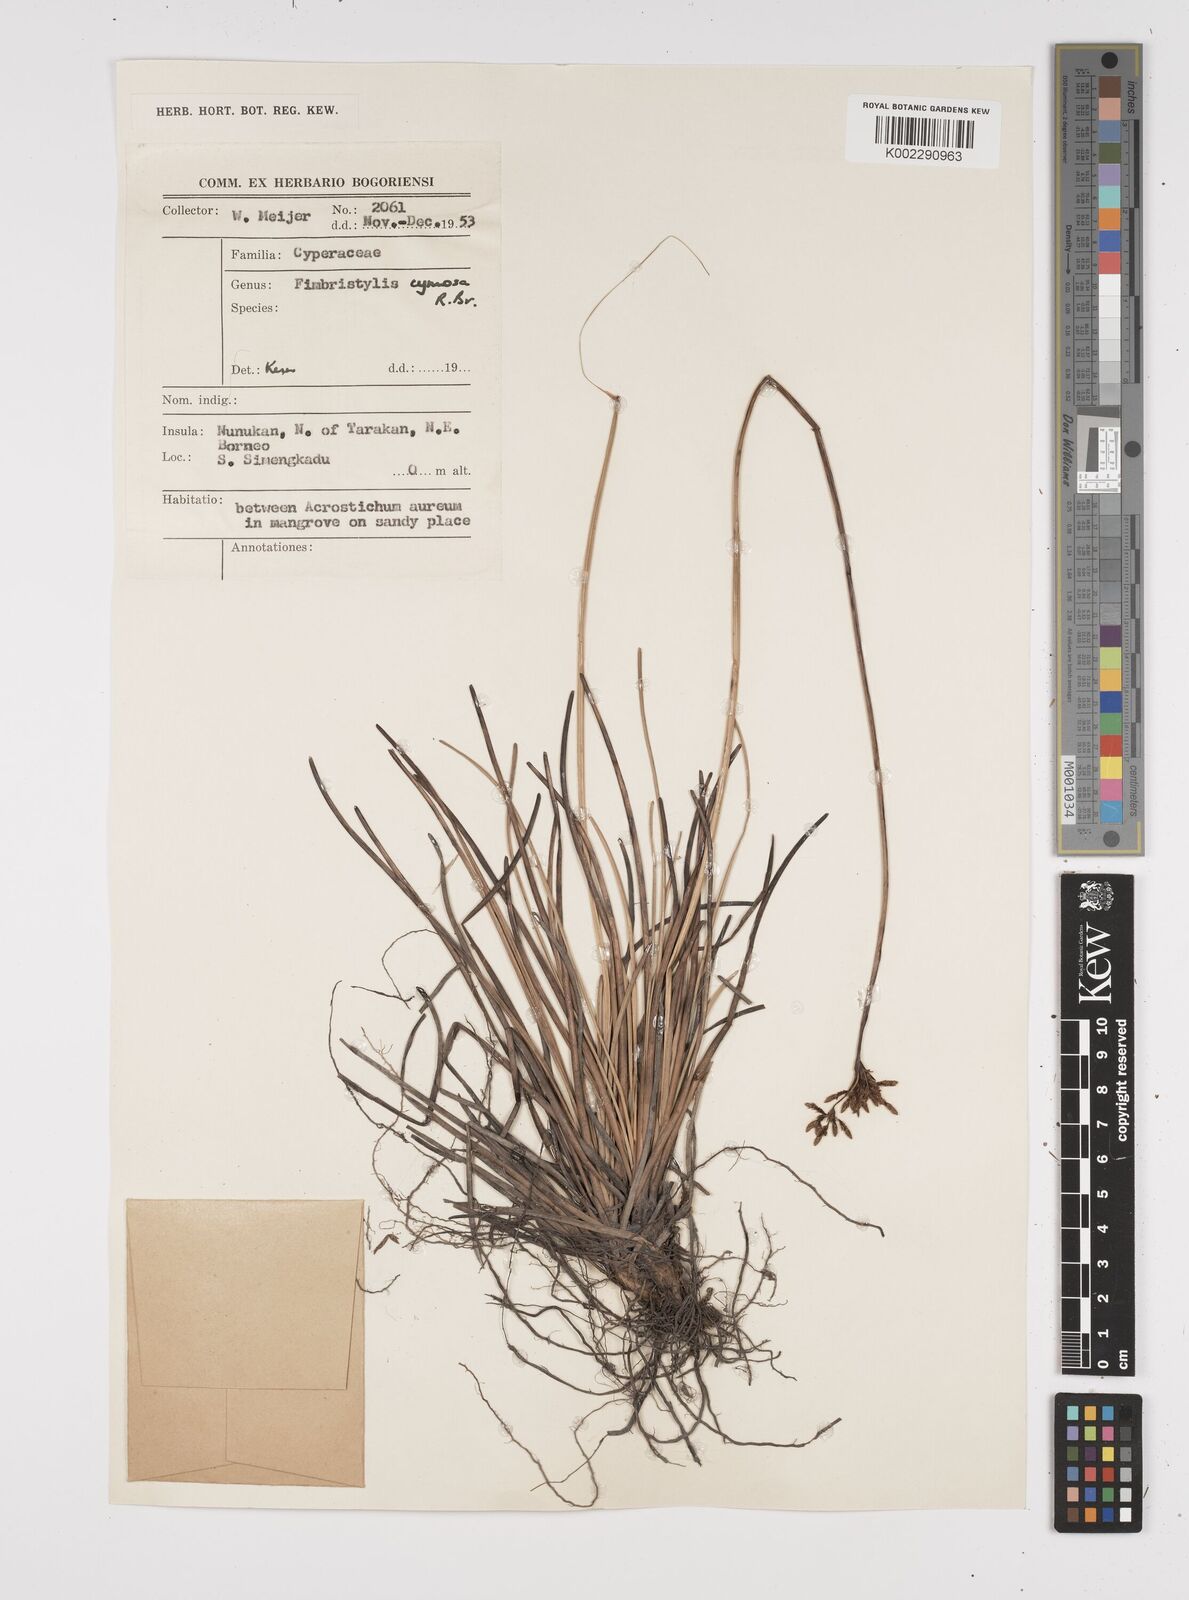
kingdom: Plantae
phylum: Tracheophyta
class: Liliopsida
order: Poales
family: Cyperaceae
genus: Fimbristylis
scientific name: Fimbristylis cymosa
